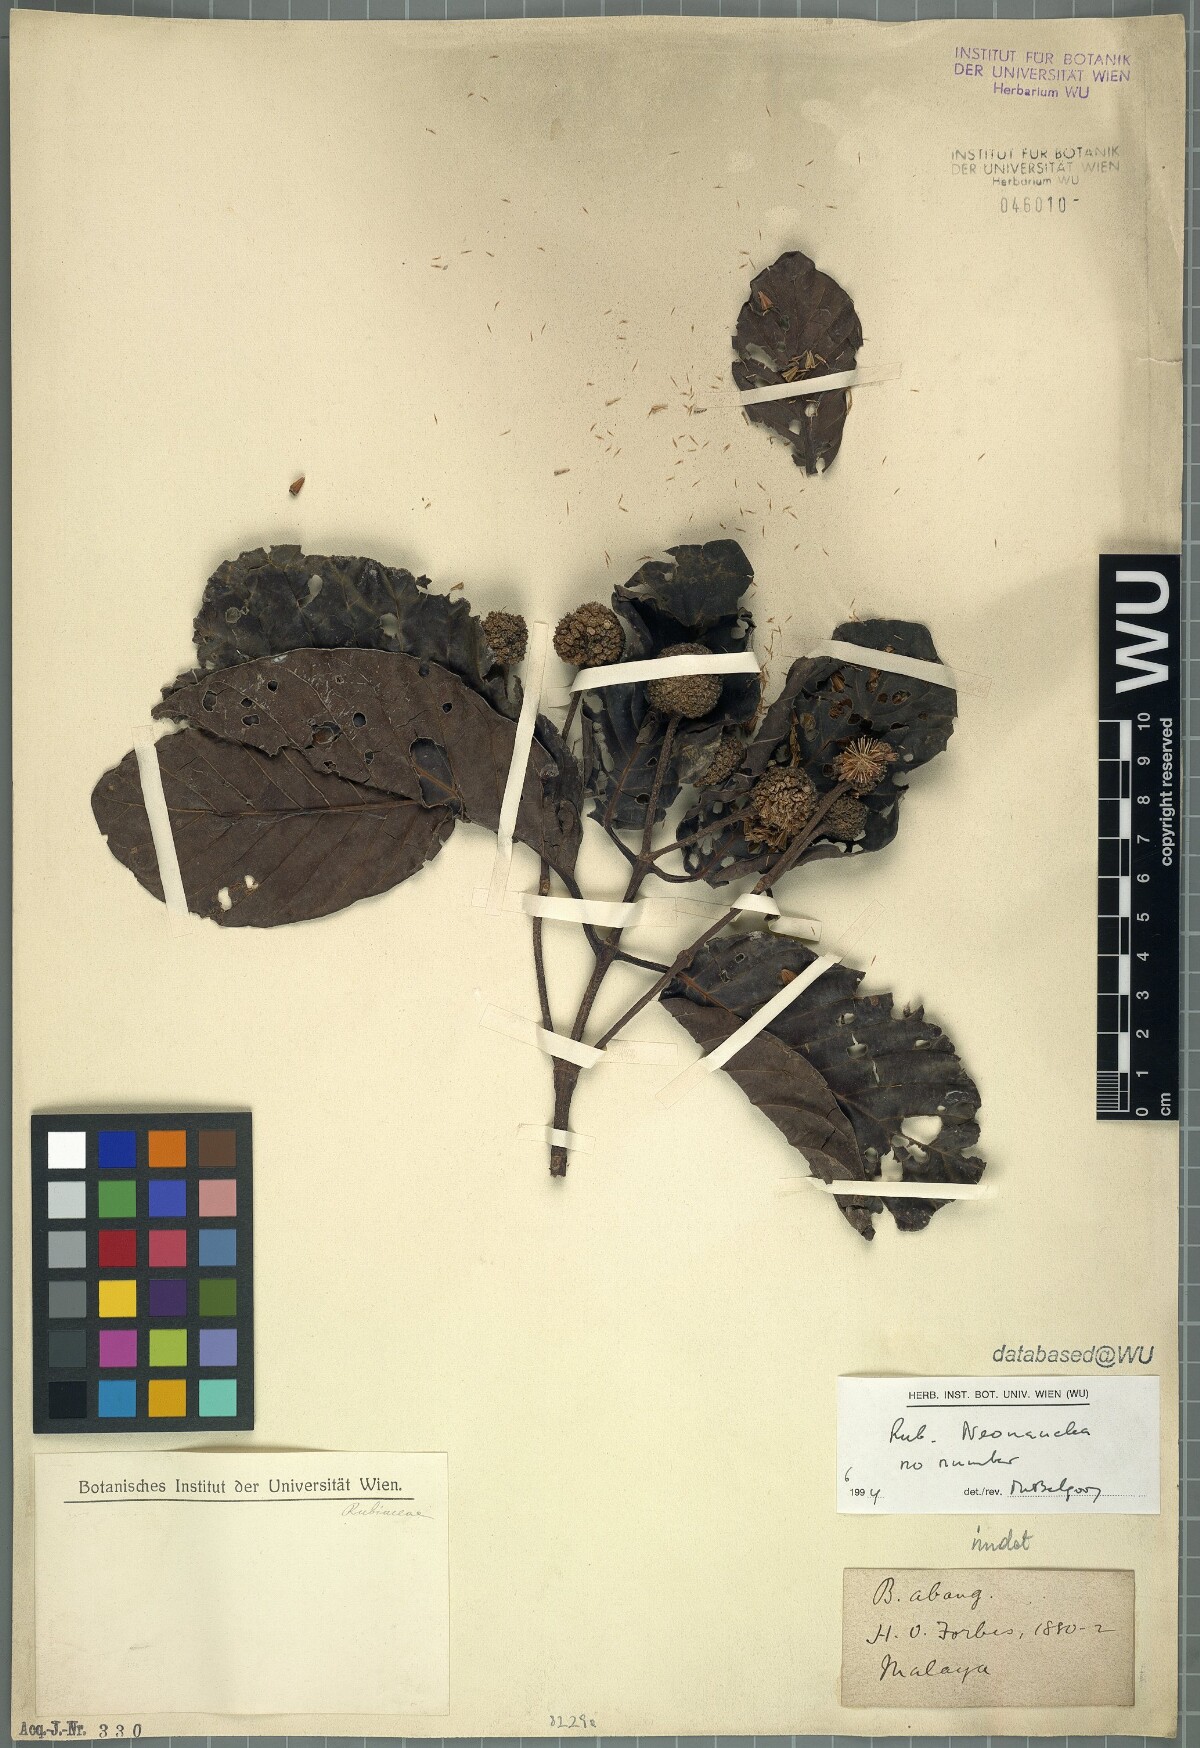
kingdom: Plantae
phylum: Tracheophyta
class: Magnoliopsida
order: Gentianales
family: Rubiaceae
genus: Neonauclea
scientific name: Neonauclea
